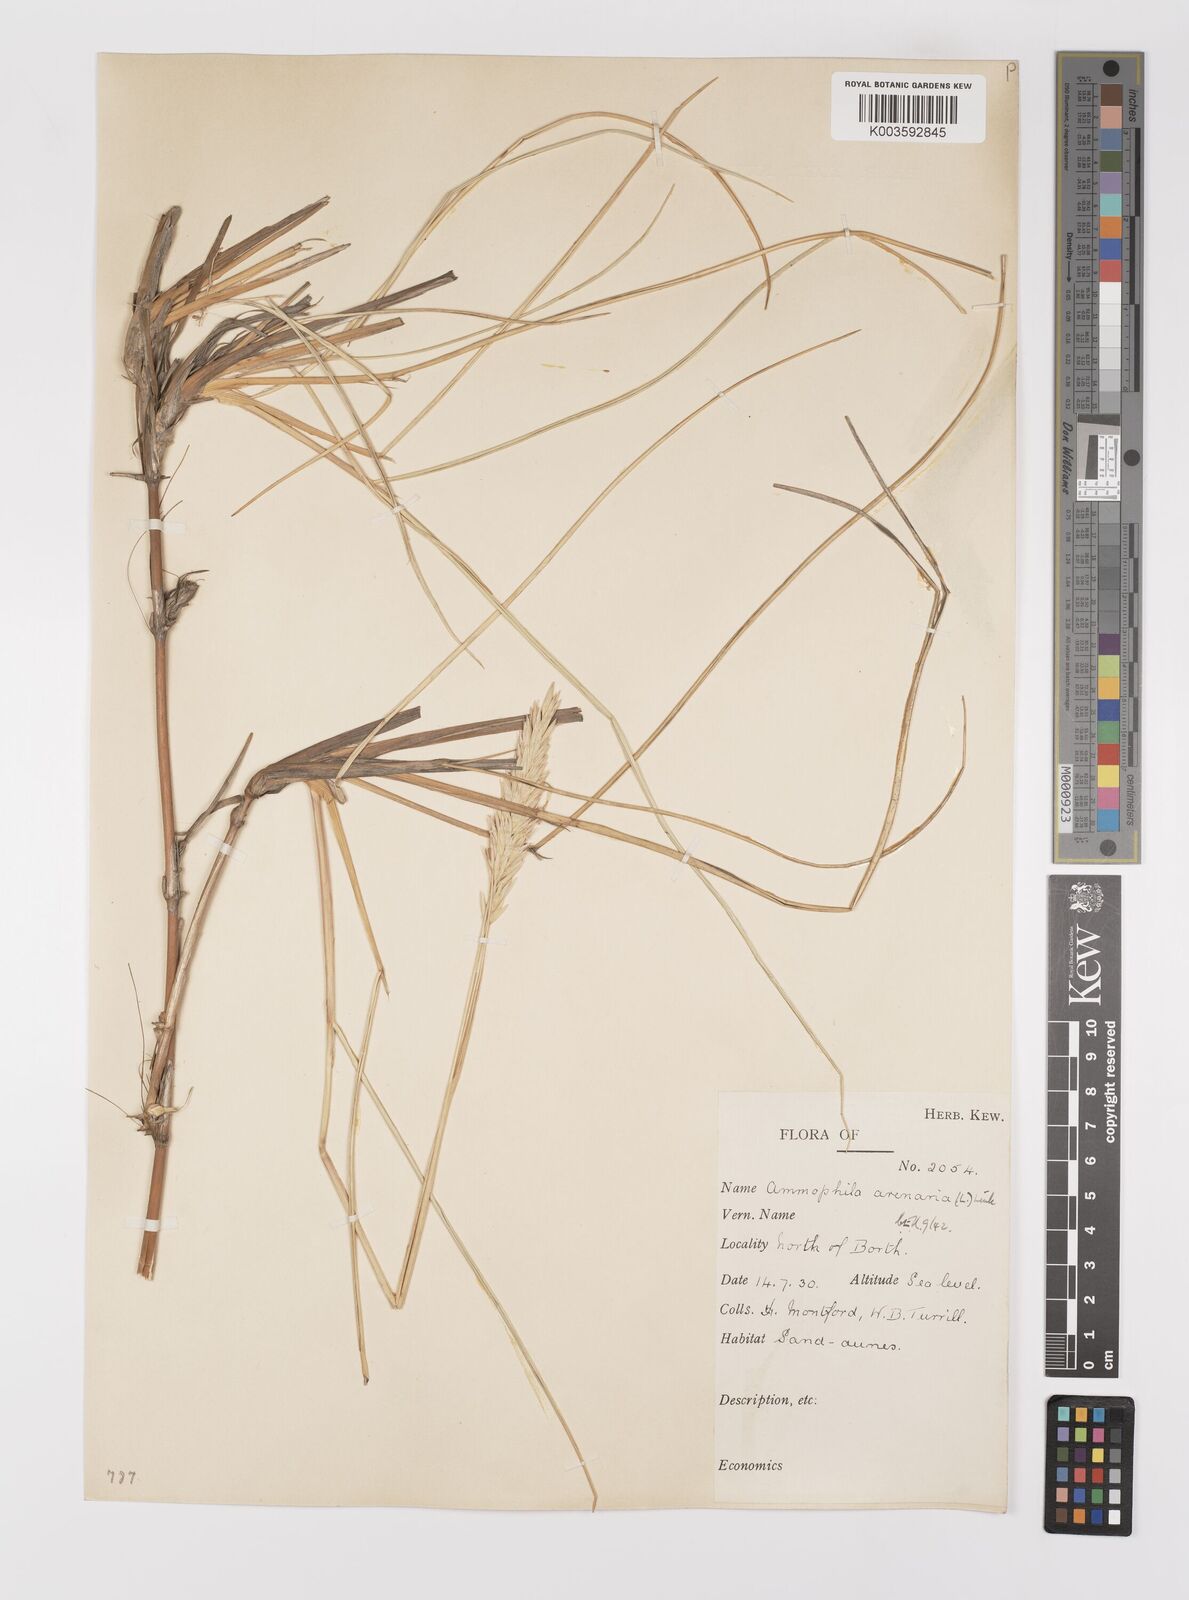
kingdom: Plantae
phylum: Tracheophyta
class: Liliopsida
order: Poales
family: Poaceae
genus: Calamagrostis
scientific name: Calamagrostis arenaria
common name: European beachgrass
